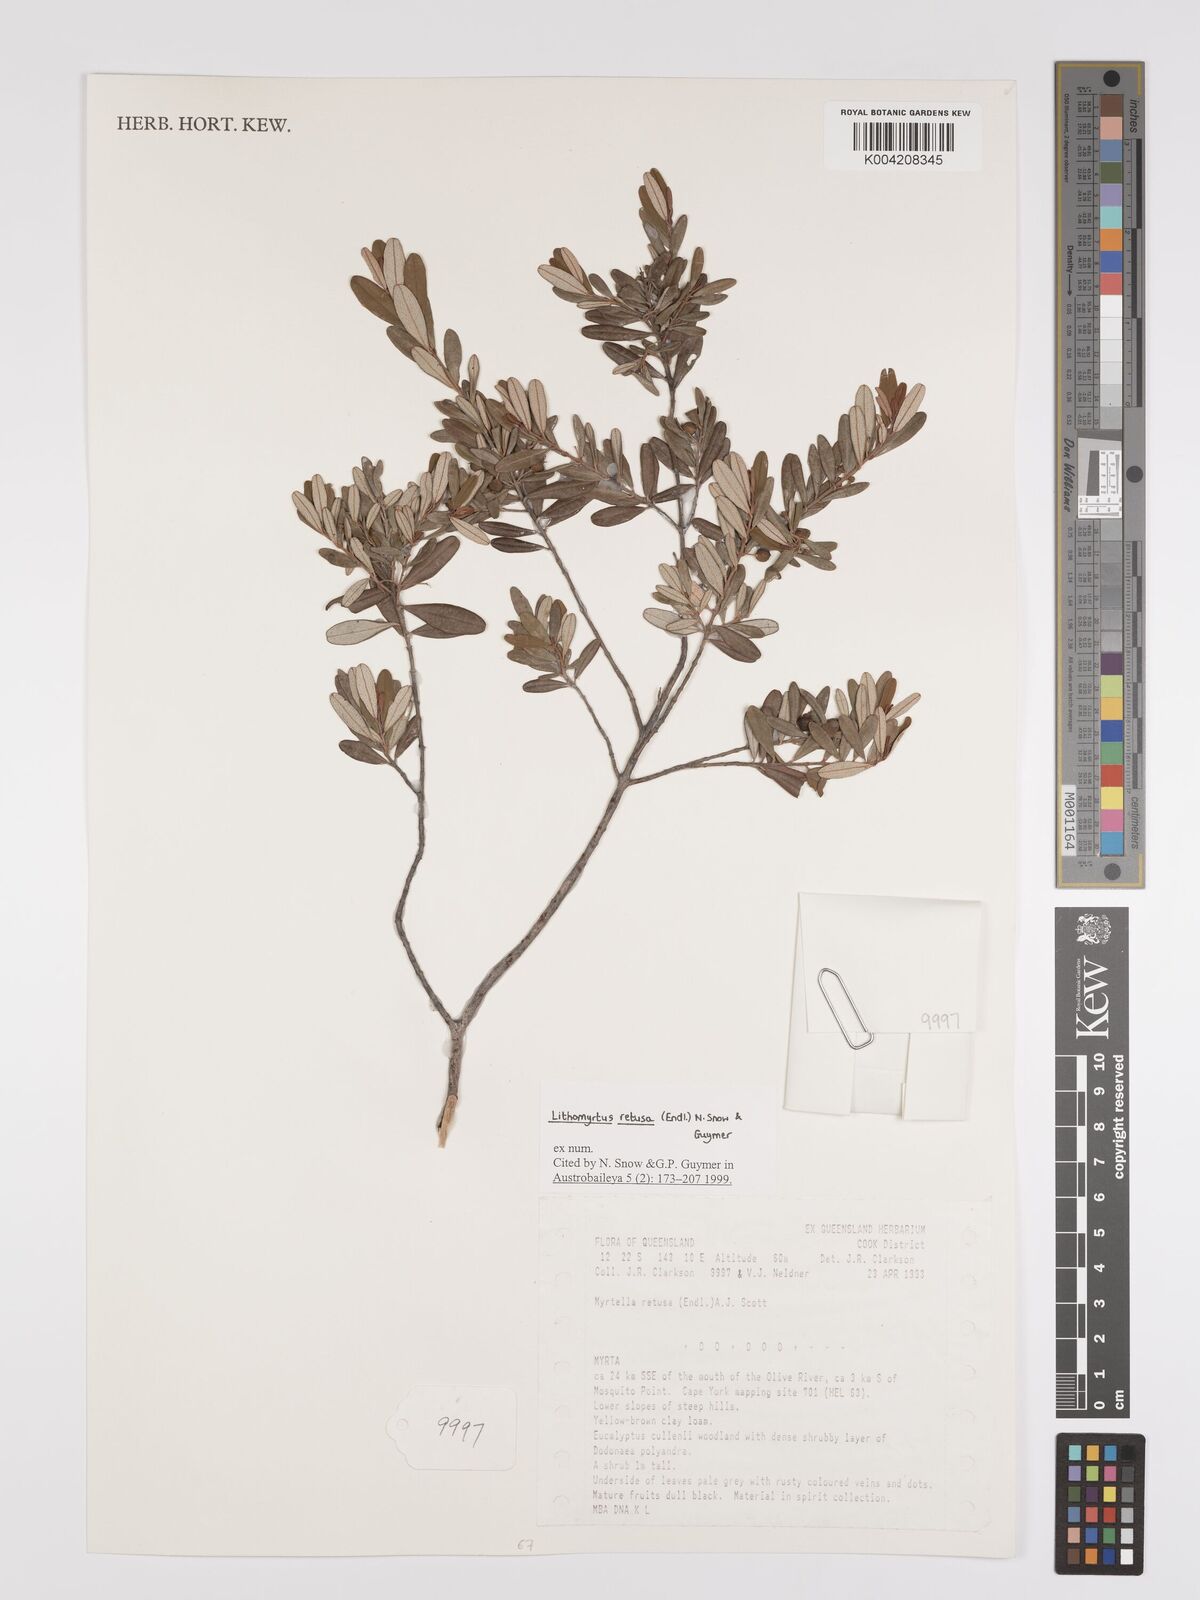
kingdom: Plantae
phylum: Tracheophyta
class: Magnoliopsida
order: Myrtales
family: Myrtaceae
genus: Lithomyrtus
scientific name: Lithomyrtus retusa
